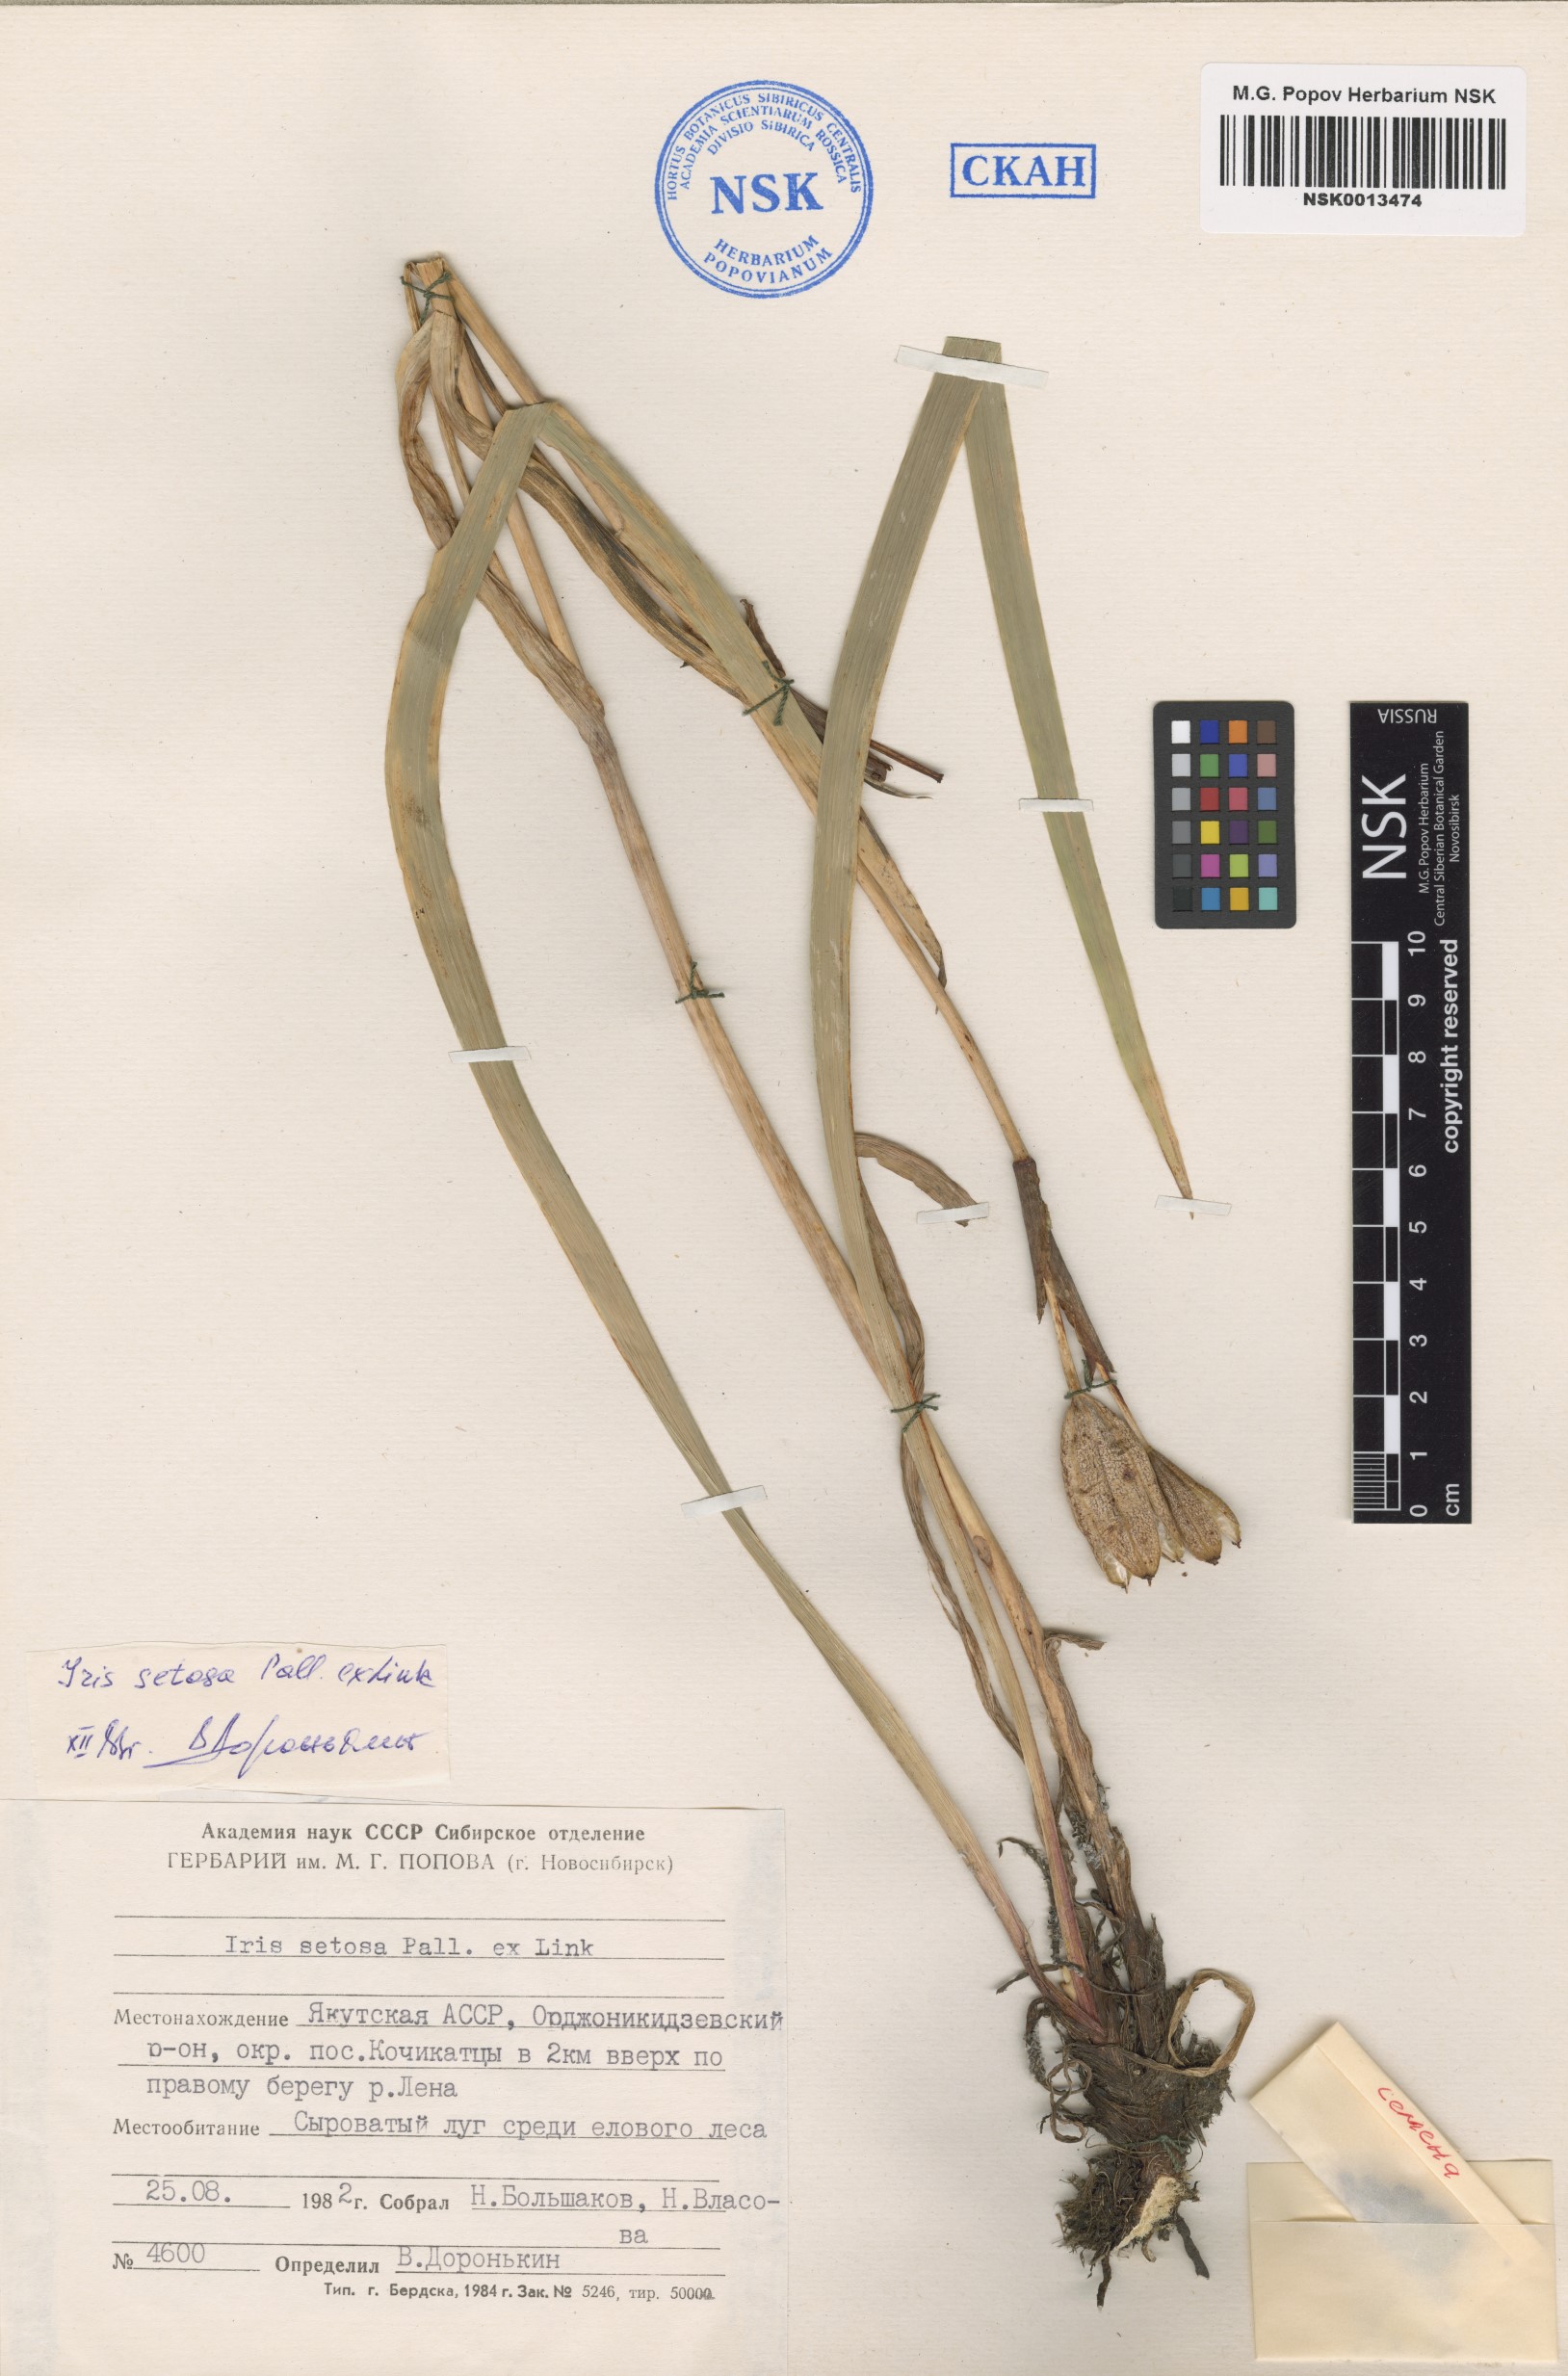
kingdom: Plantae
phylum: Tracheophyta
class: Liliopsida
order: Asparagales
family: Iridaceae
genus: Iris
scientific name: Iris setosa
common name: Arctic blue flag
